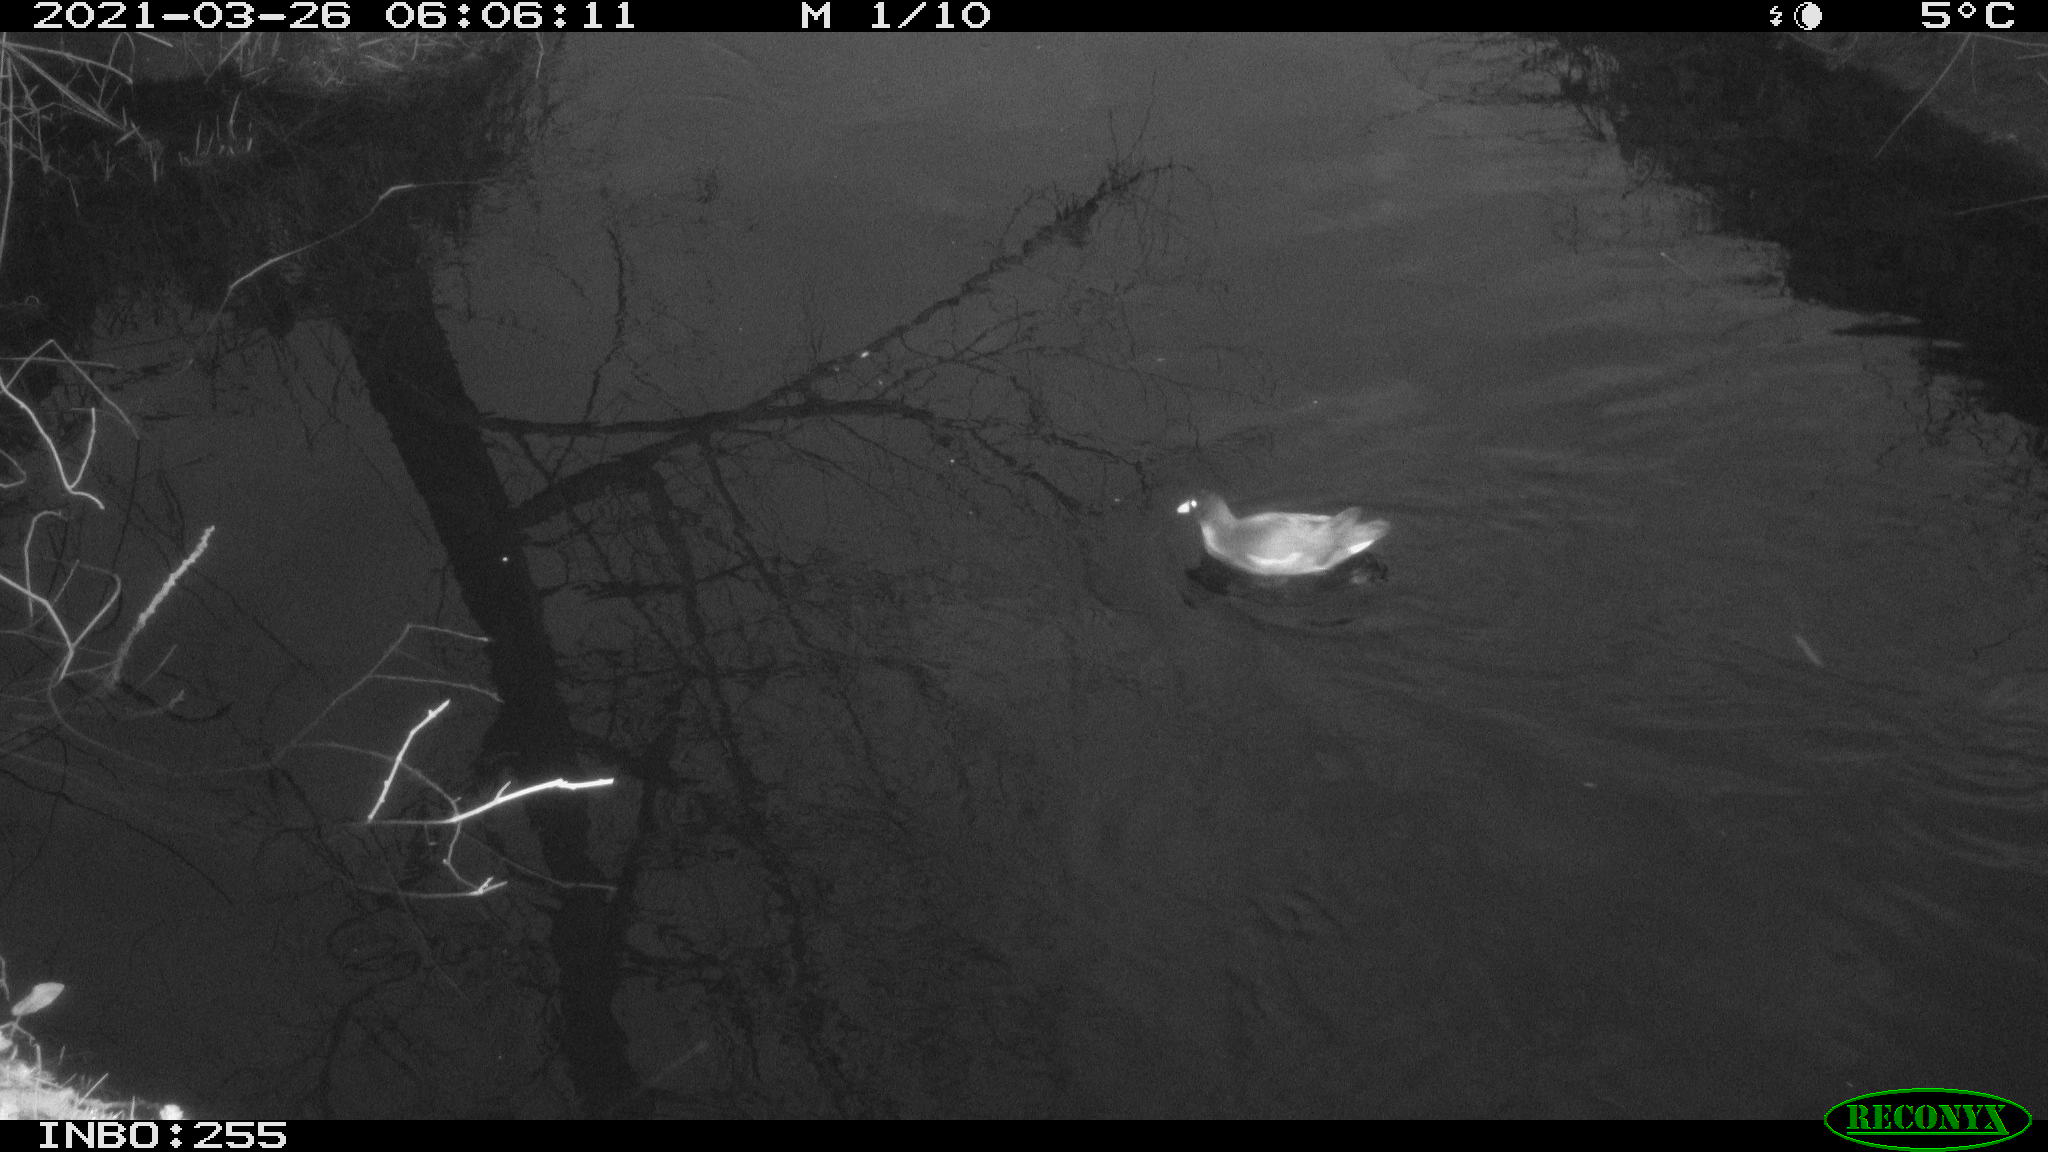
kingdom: Animalia
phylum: Chordata
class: Aves
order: Anseriformes
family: Anatidae
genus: Anas
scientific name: Anas platyrhynchos
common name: Mallard
